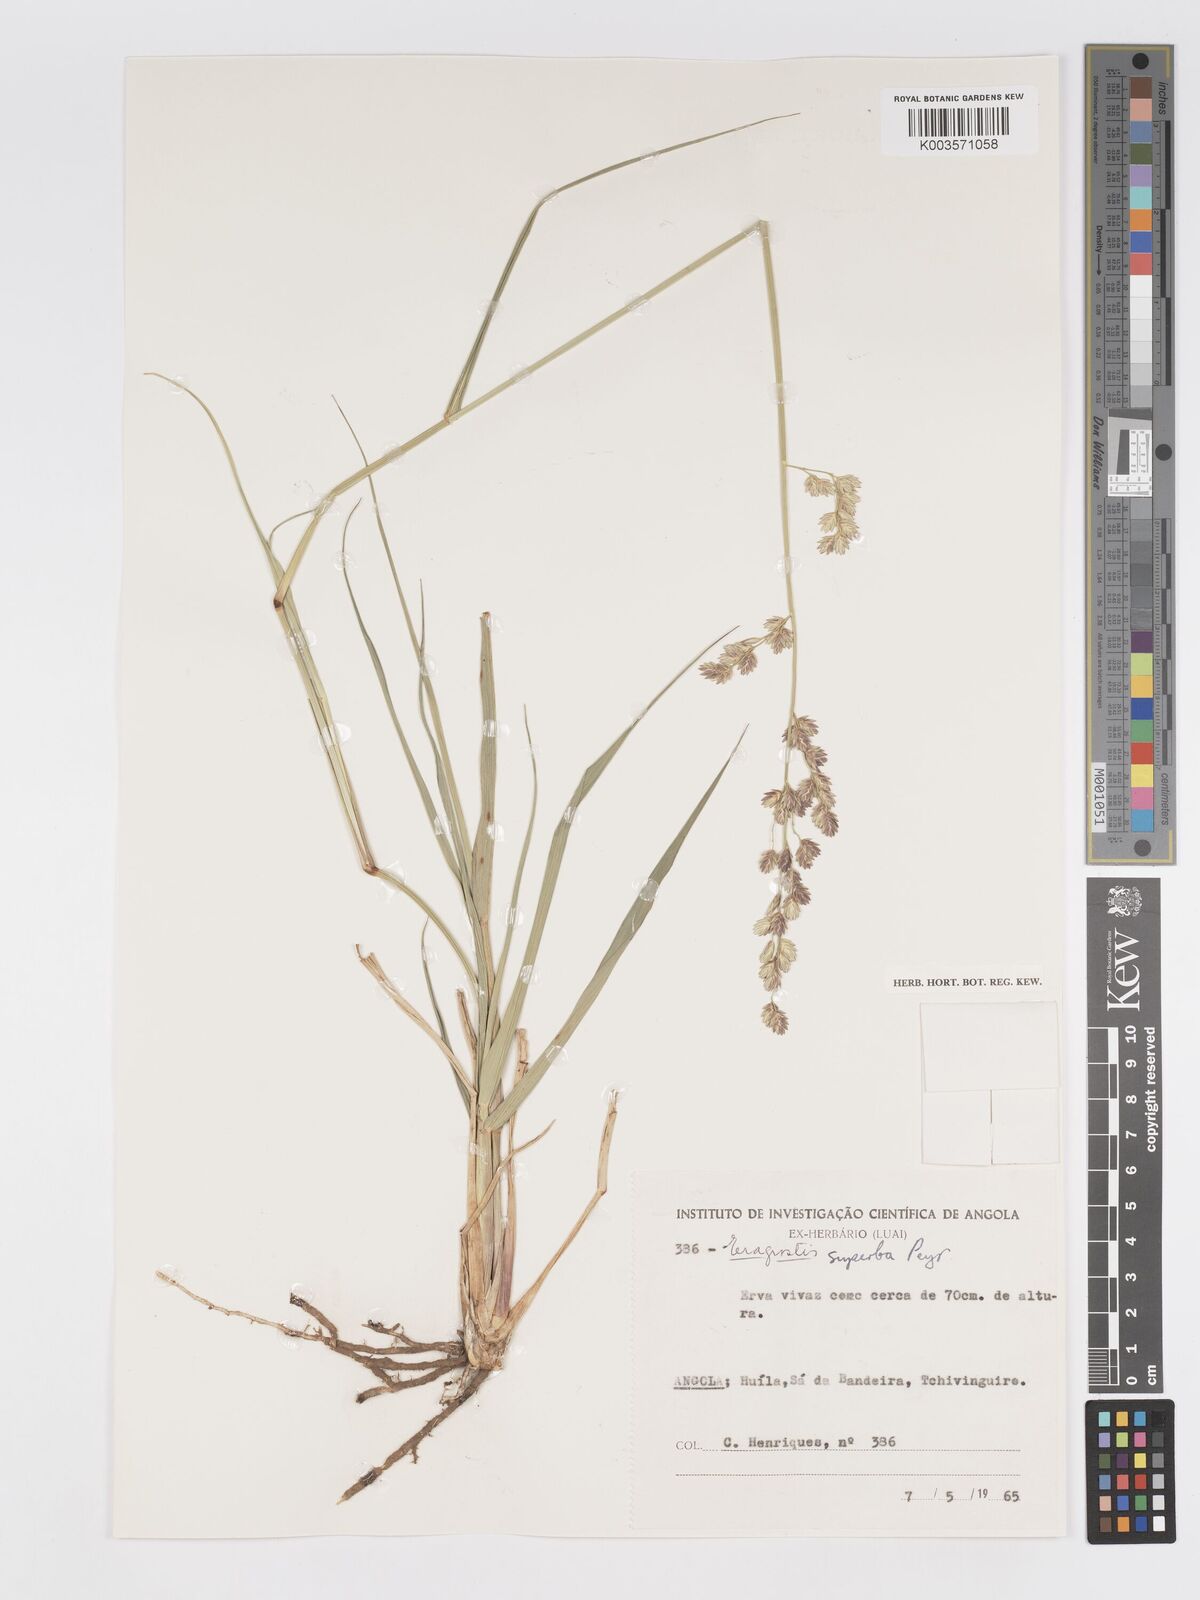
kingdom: Plantae
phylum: Tracheophyta
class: Liliopsida
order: Poales
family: Poaceae
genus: Eragrostis
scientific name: Eragrostis superba
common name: Wilman lovegrass
